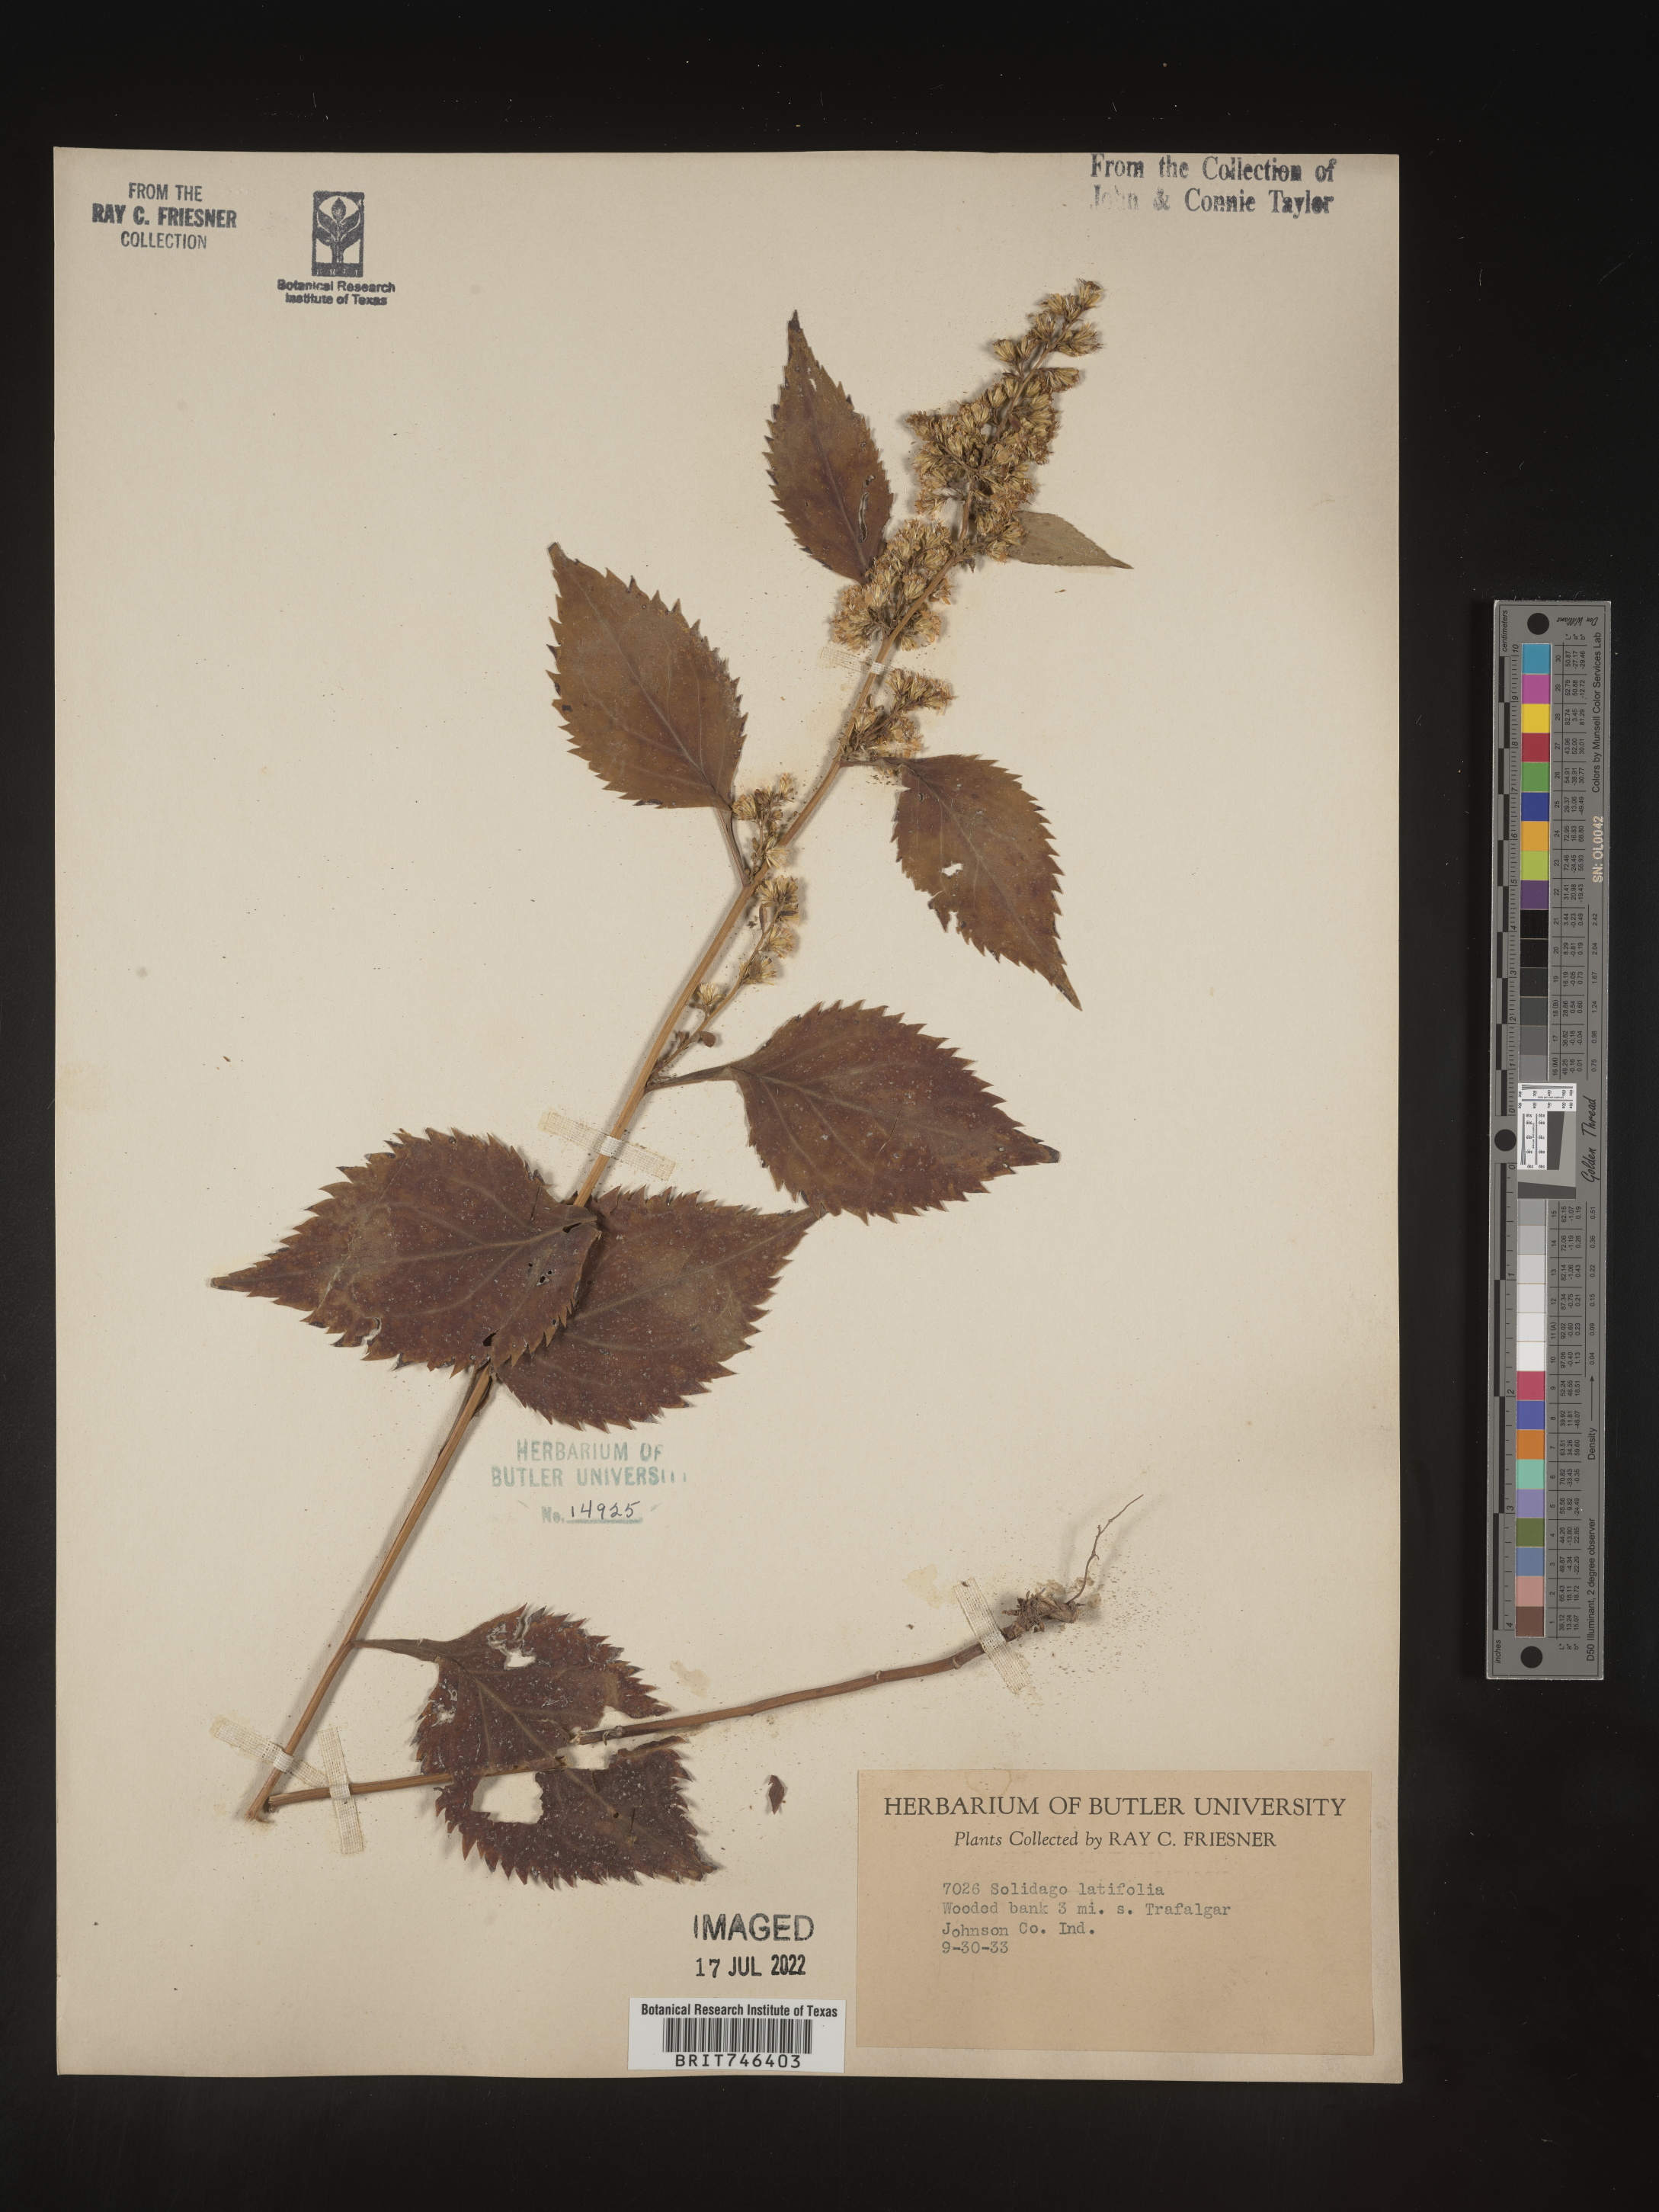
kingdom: Plantae
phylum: Tracheophyta
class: Magnoliopsida
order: Asterales
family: Asteraceae
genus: Solidago
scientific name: Solidago flexicaulis
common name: Zig-zag goldenrod
